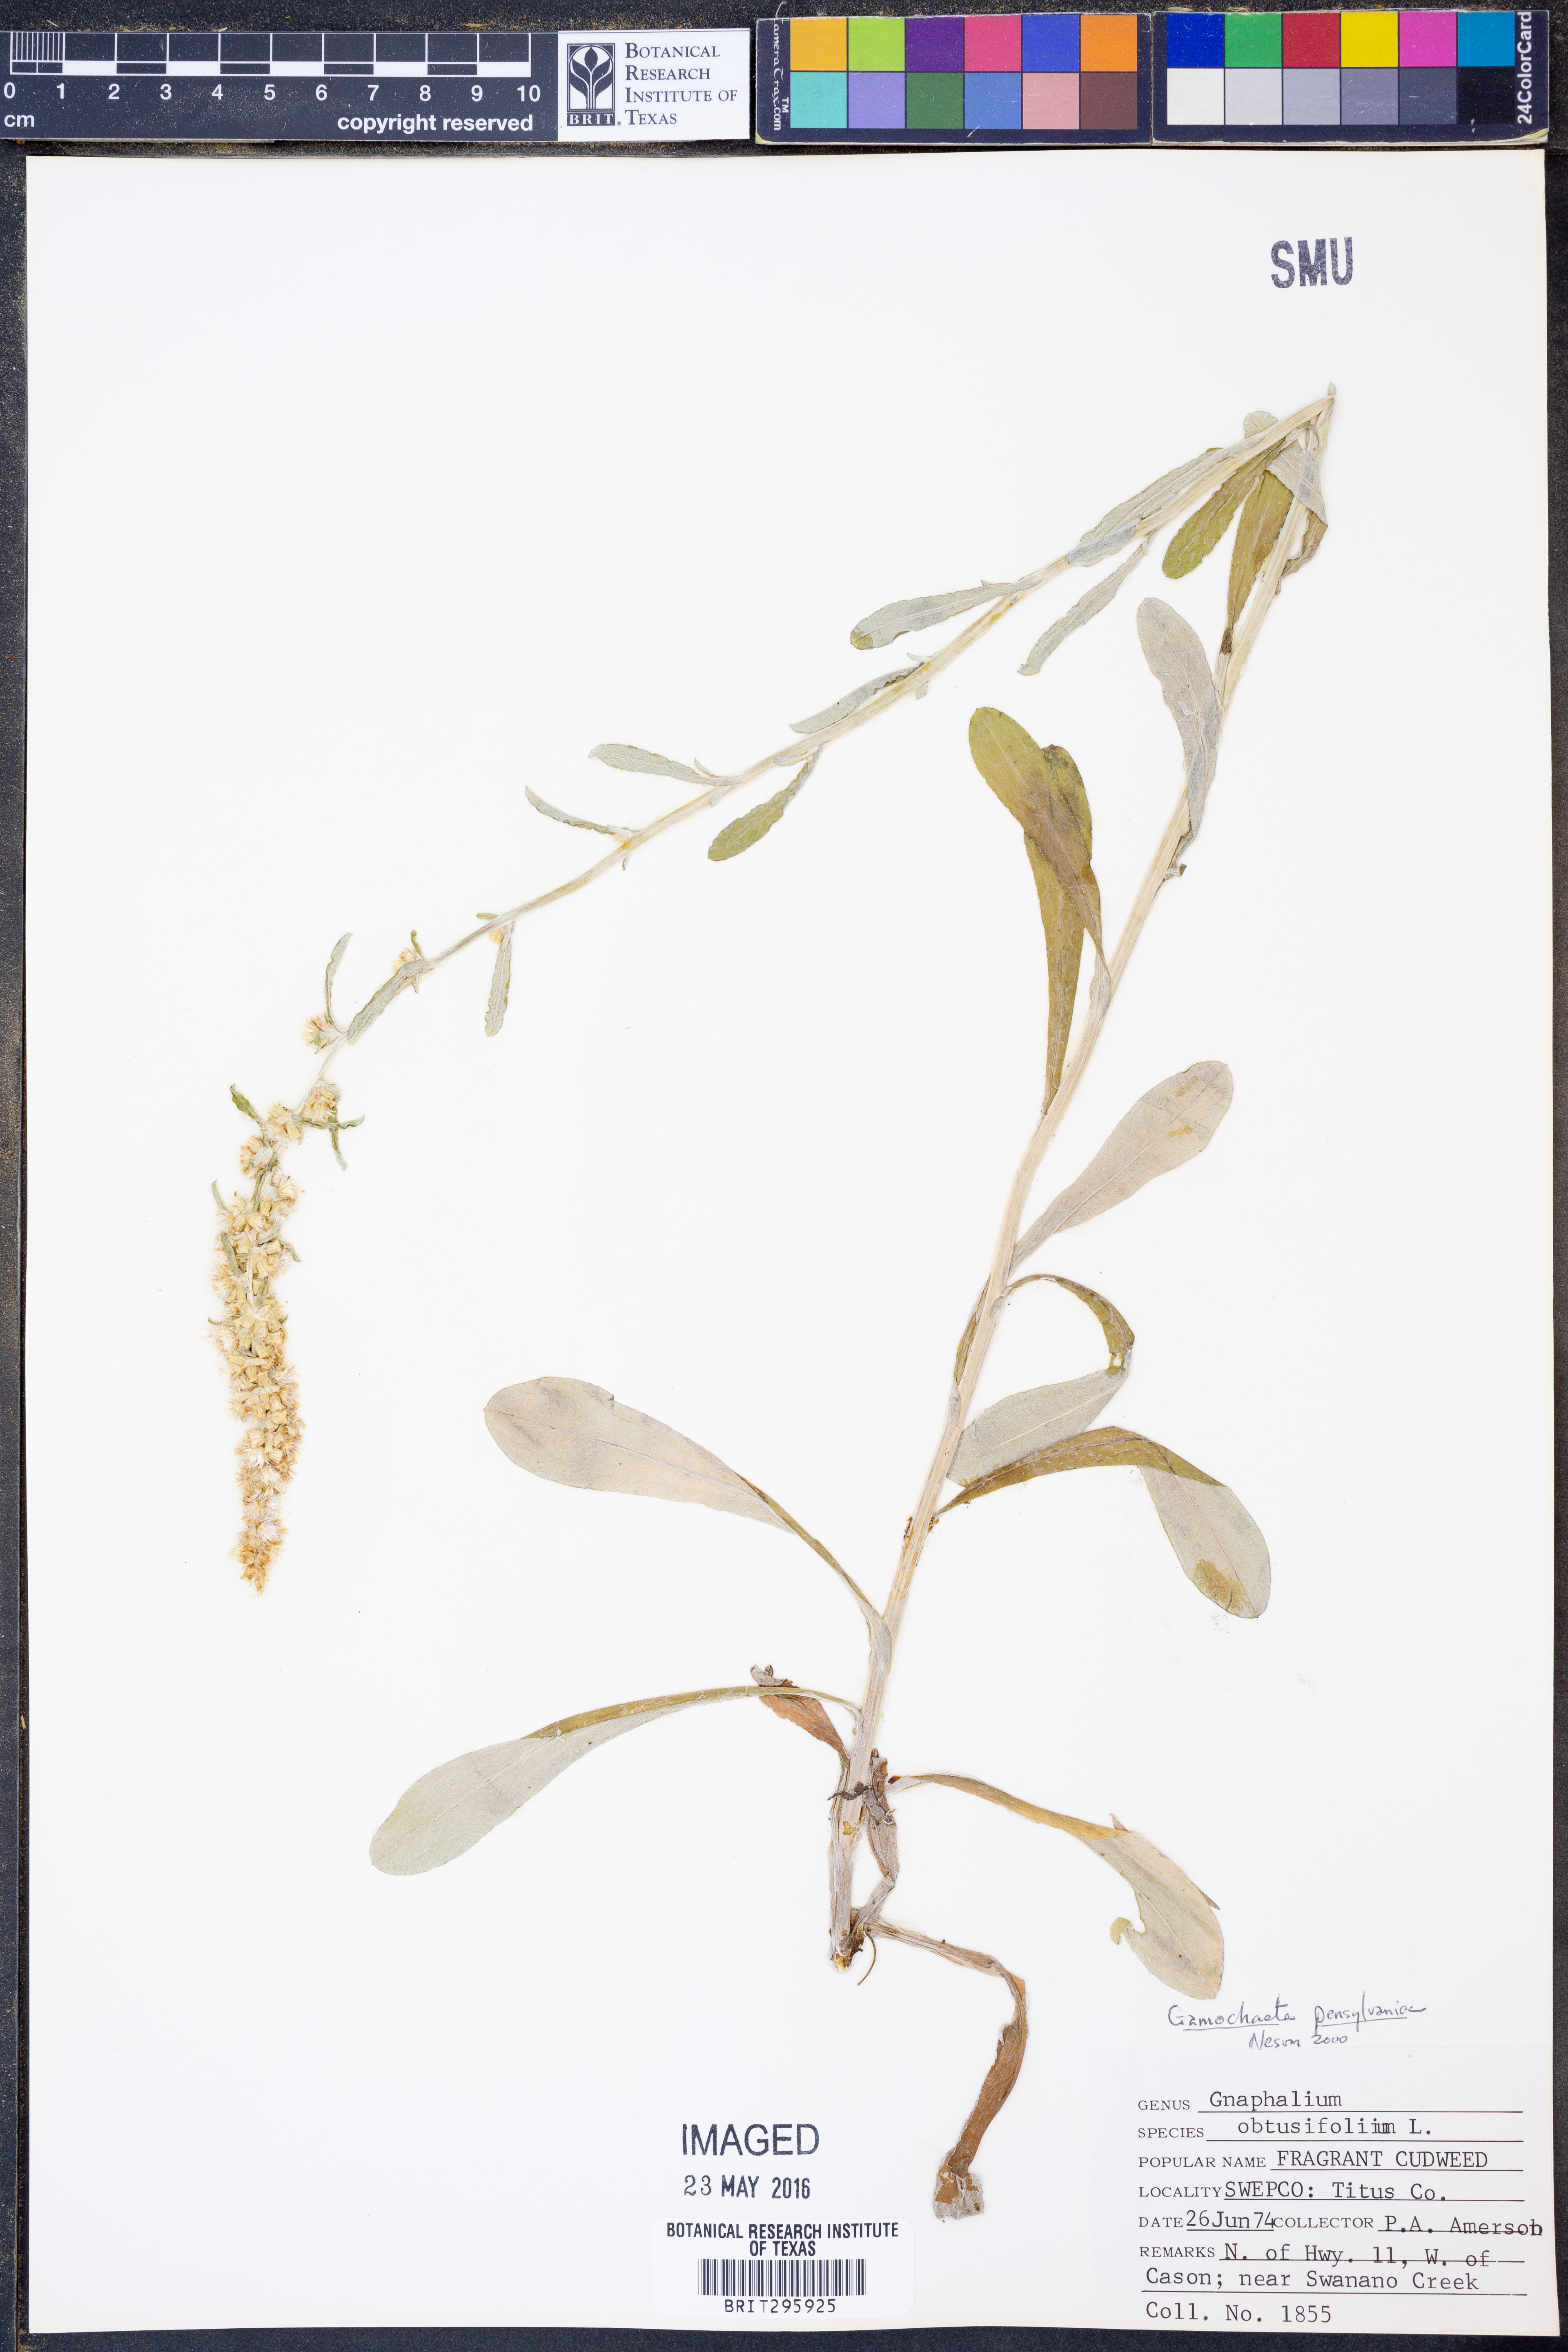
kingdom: Plantae
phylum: Tracheophyta
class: Magnoliopsida
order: Asterales
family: Asteraceae
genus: Gamochaeta
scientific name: Gamochaeta pensylvanica
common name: Pennsylvania everlasting
